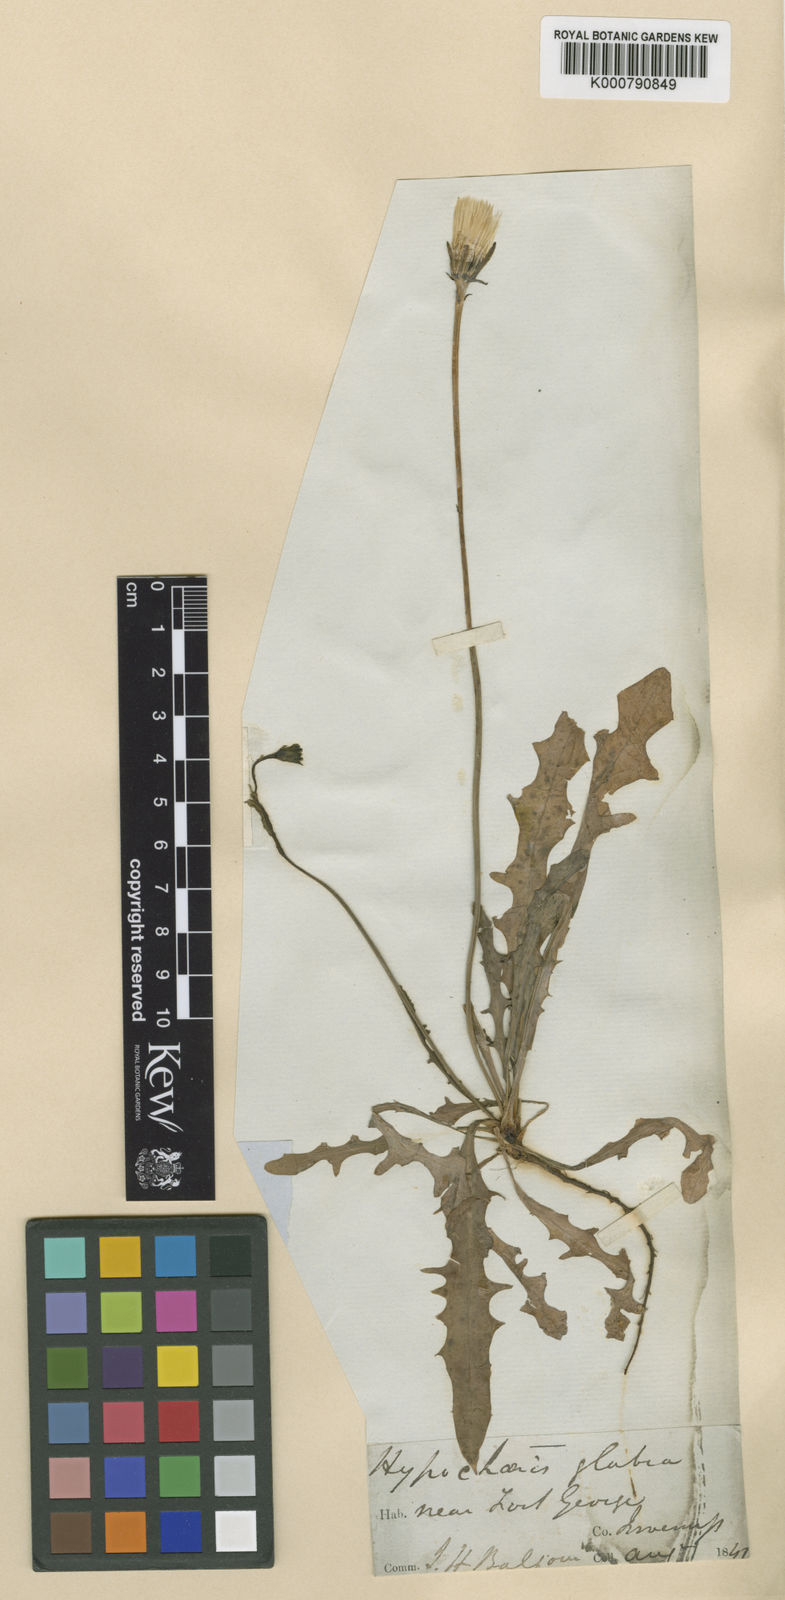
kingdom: Plantae
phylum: Tracheophyta
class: Magnoliopsida
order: Asterales
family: Asteraceae
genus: Hypochaeris
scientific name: Hypochaeris glabra
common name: Smooth catsear
